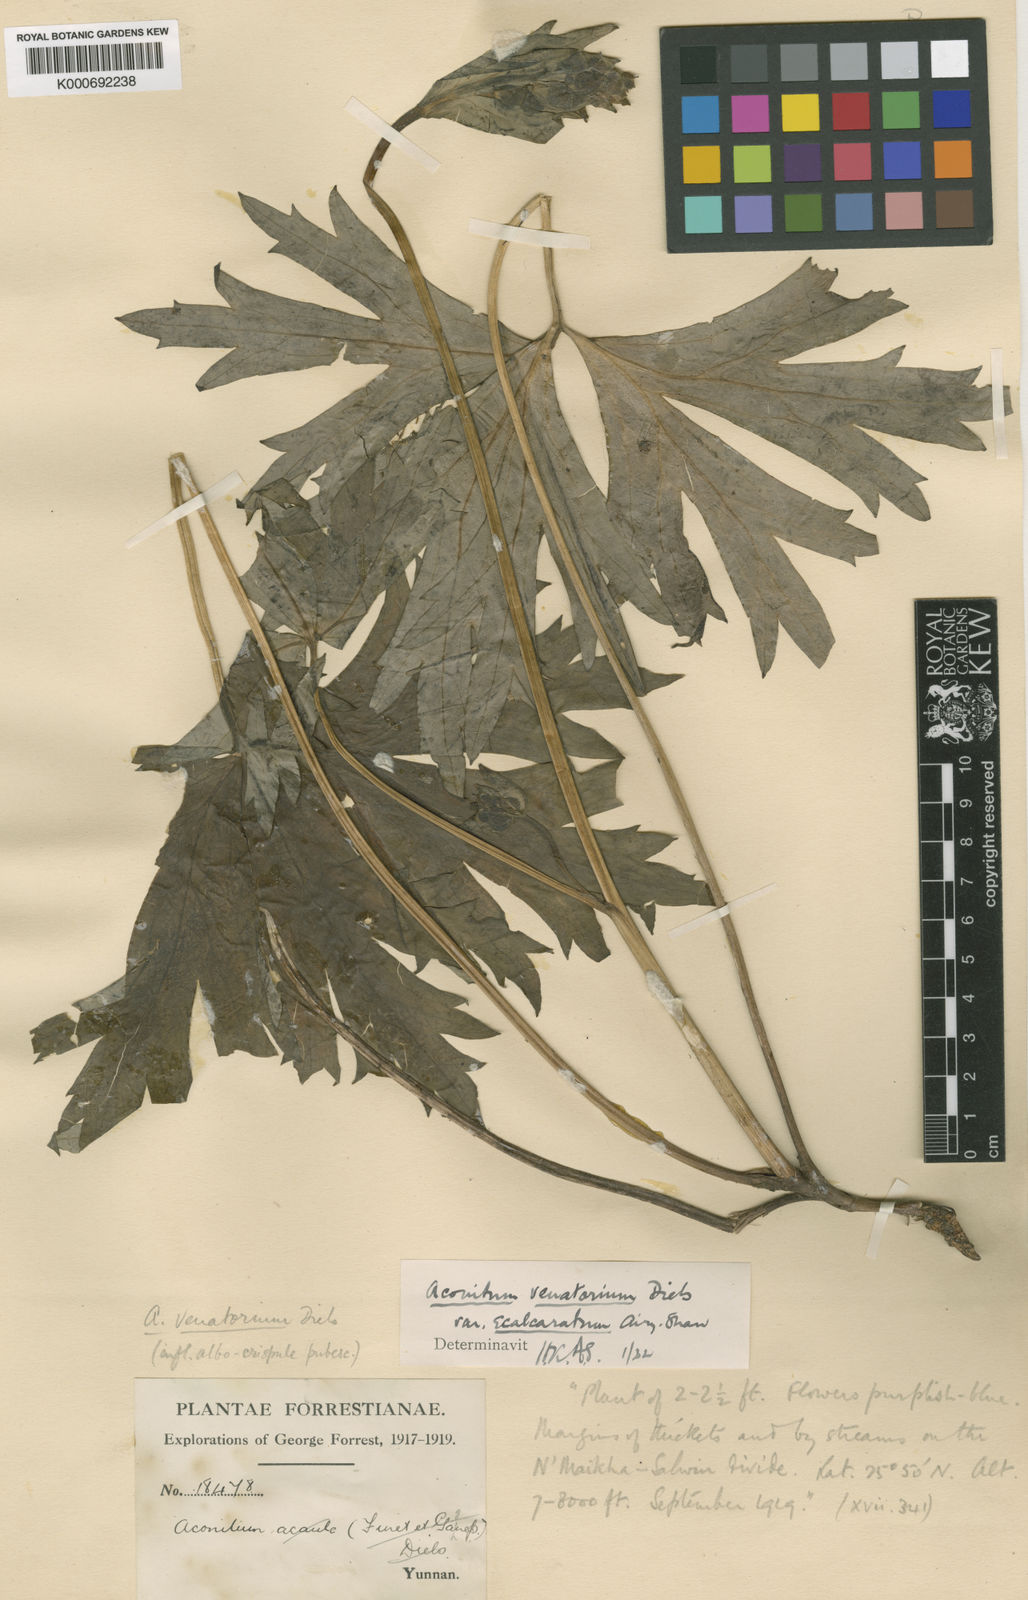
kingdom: Plantae
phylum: Tracheophyta
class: Magnoliopsida
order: Ranunculales
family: Ranunculaceae
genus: Aconitum
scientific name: Aconitum nagarum
